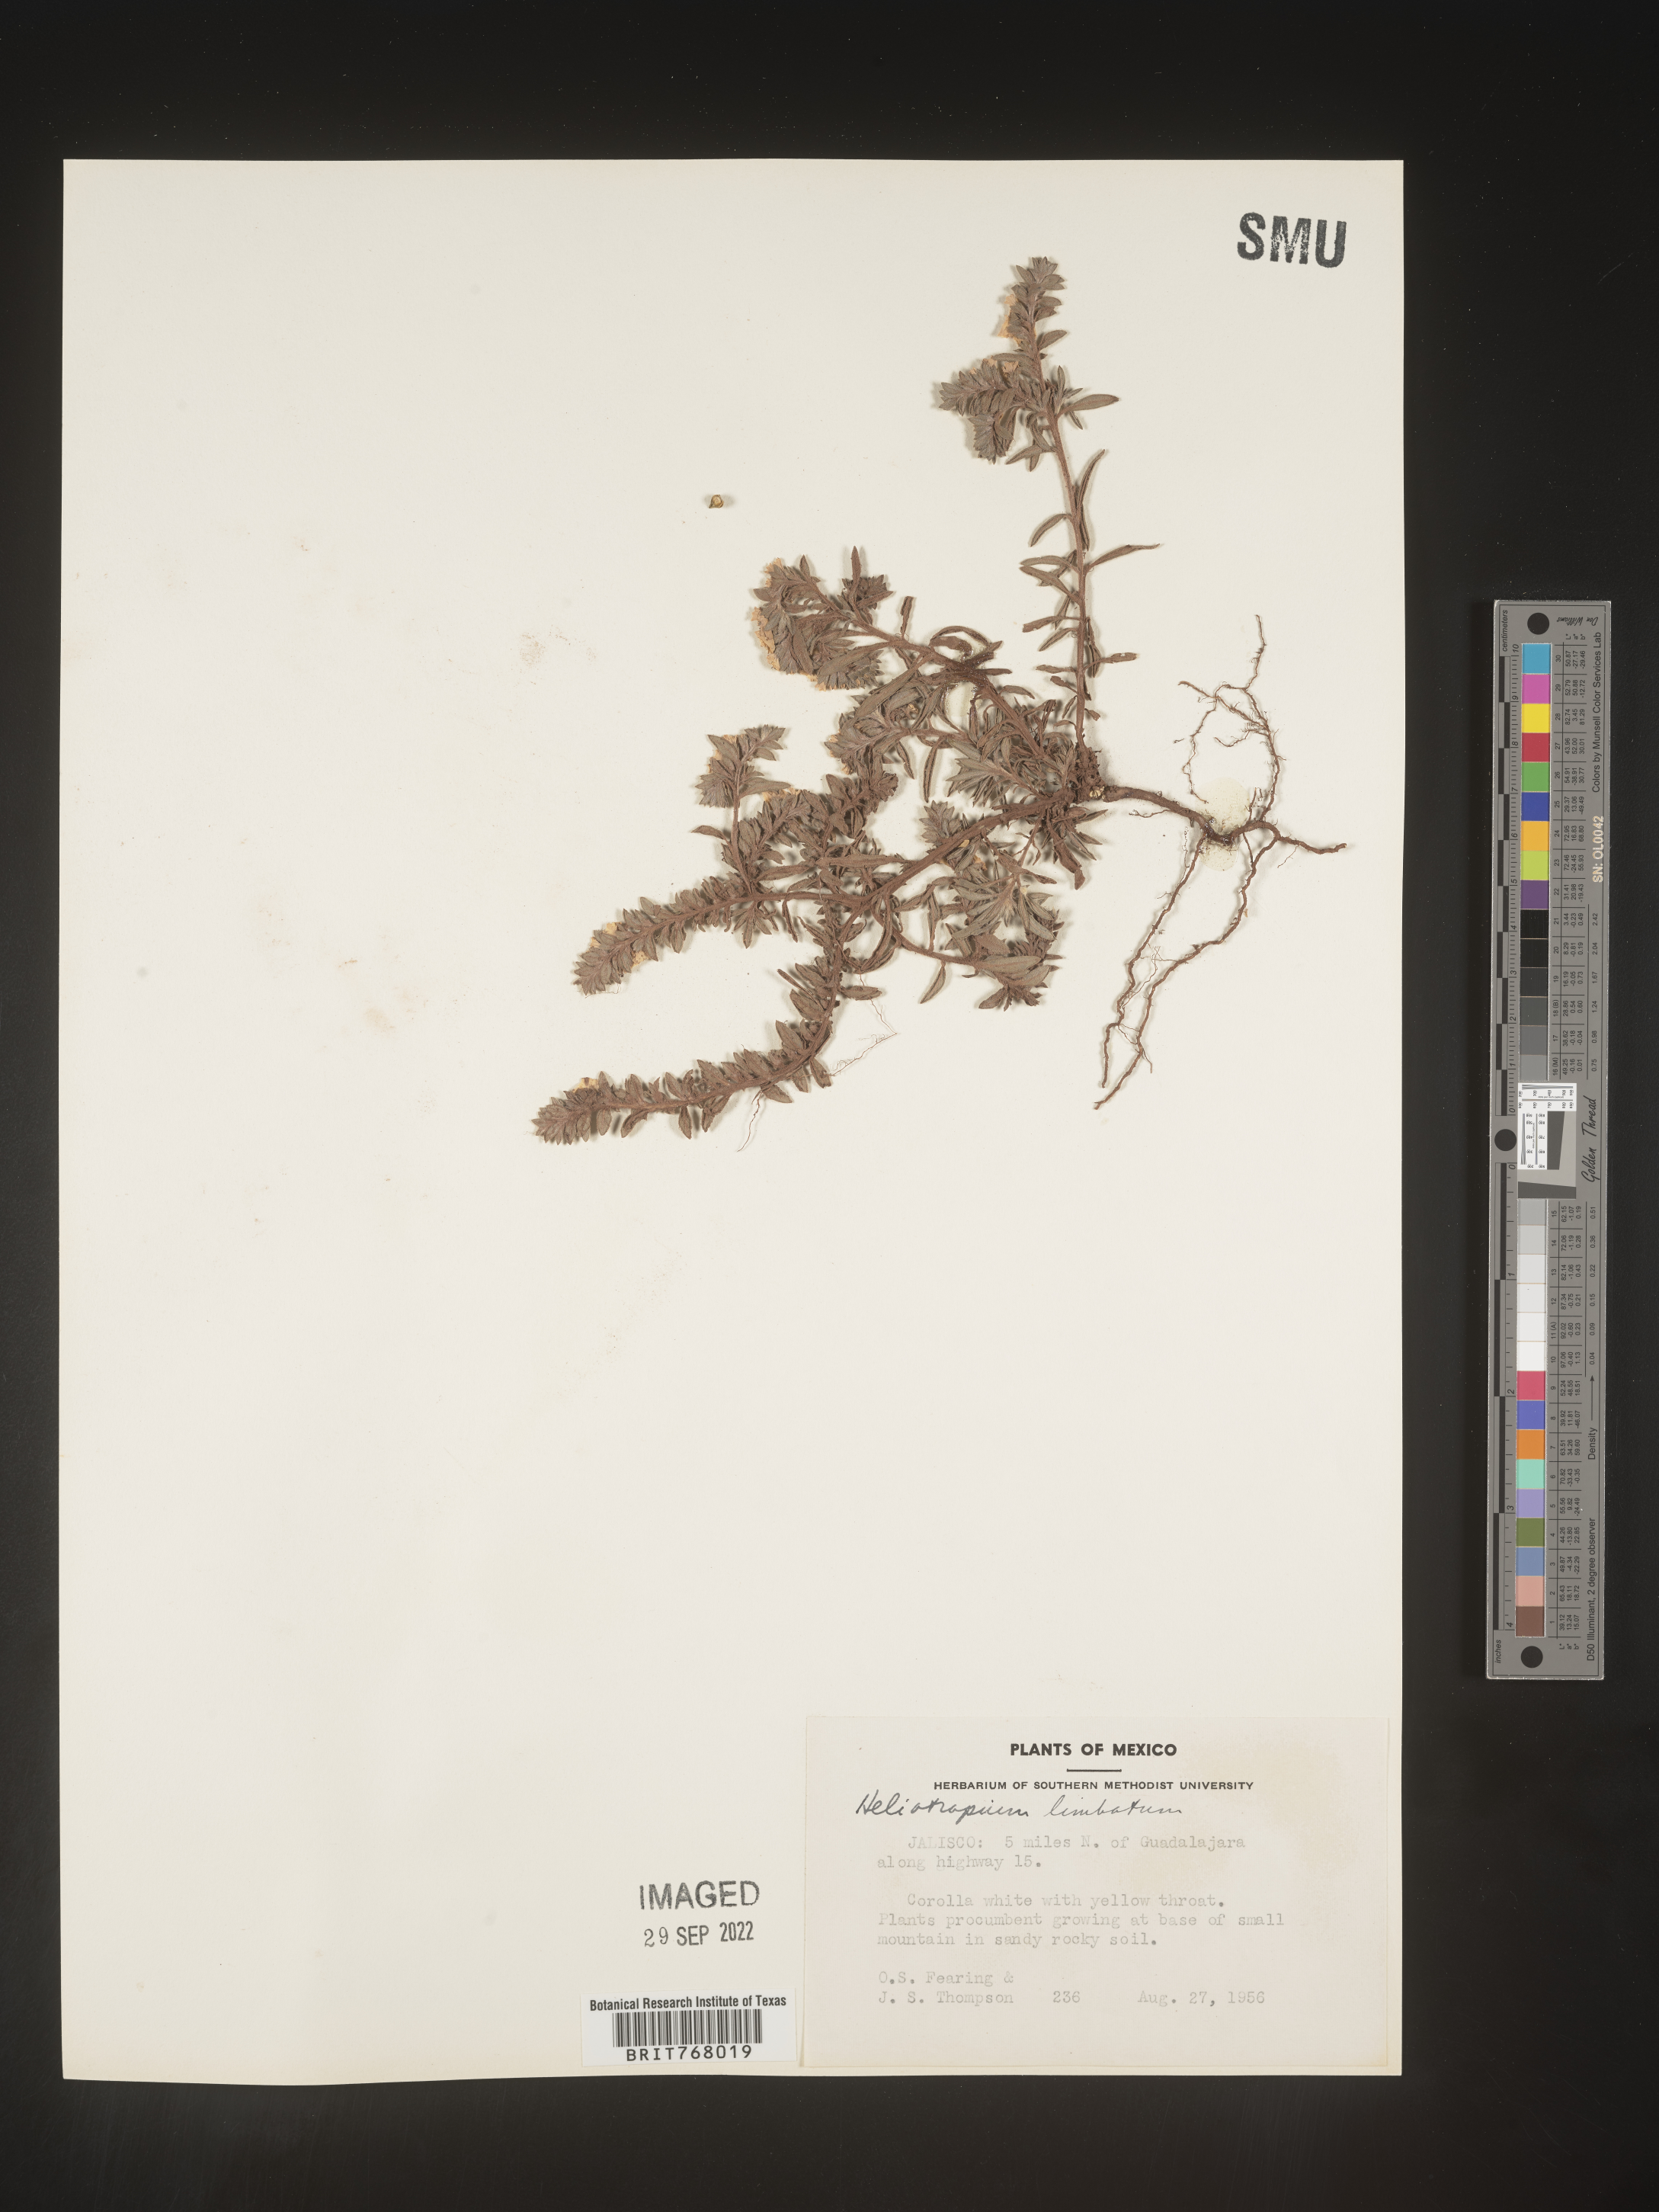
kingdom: Plantae
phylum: Tracheophyta
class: Magnoliopsida
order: Boraginales
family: Heliotropiaceae
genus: Heliotropium
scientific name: Heliotropium
